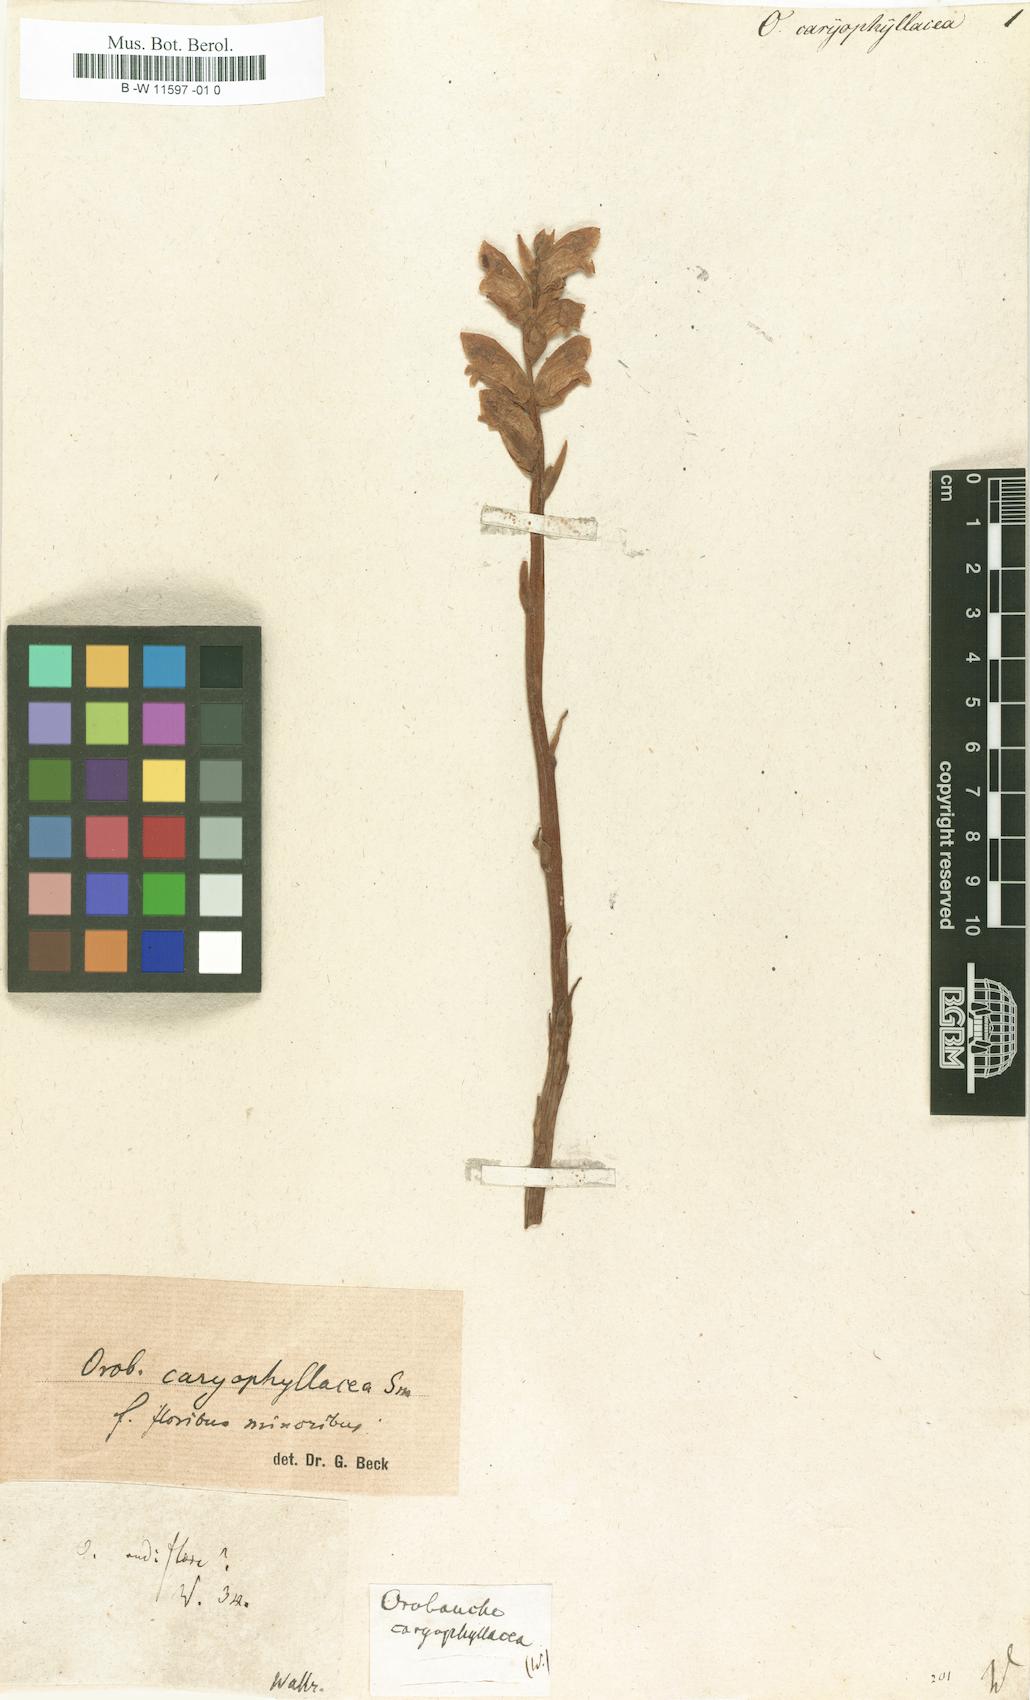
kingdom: Plantae
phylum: Tracheophyta
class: Magnoliopsida
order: Lamiales
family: Orobanchaceae
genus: Orobanche
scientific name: Orobanche caryophyllacea
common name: Bedstraw broomrape
